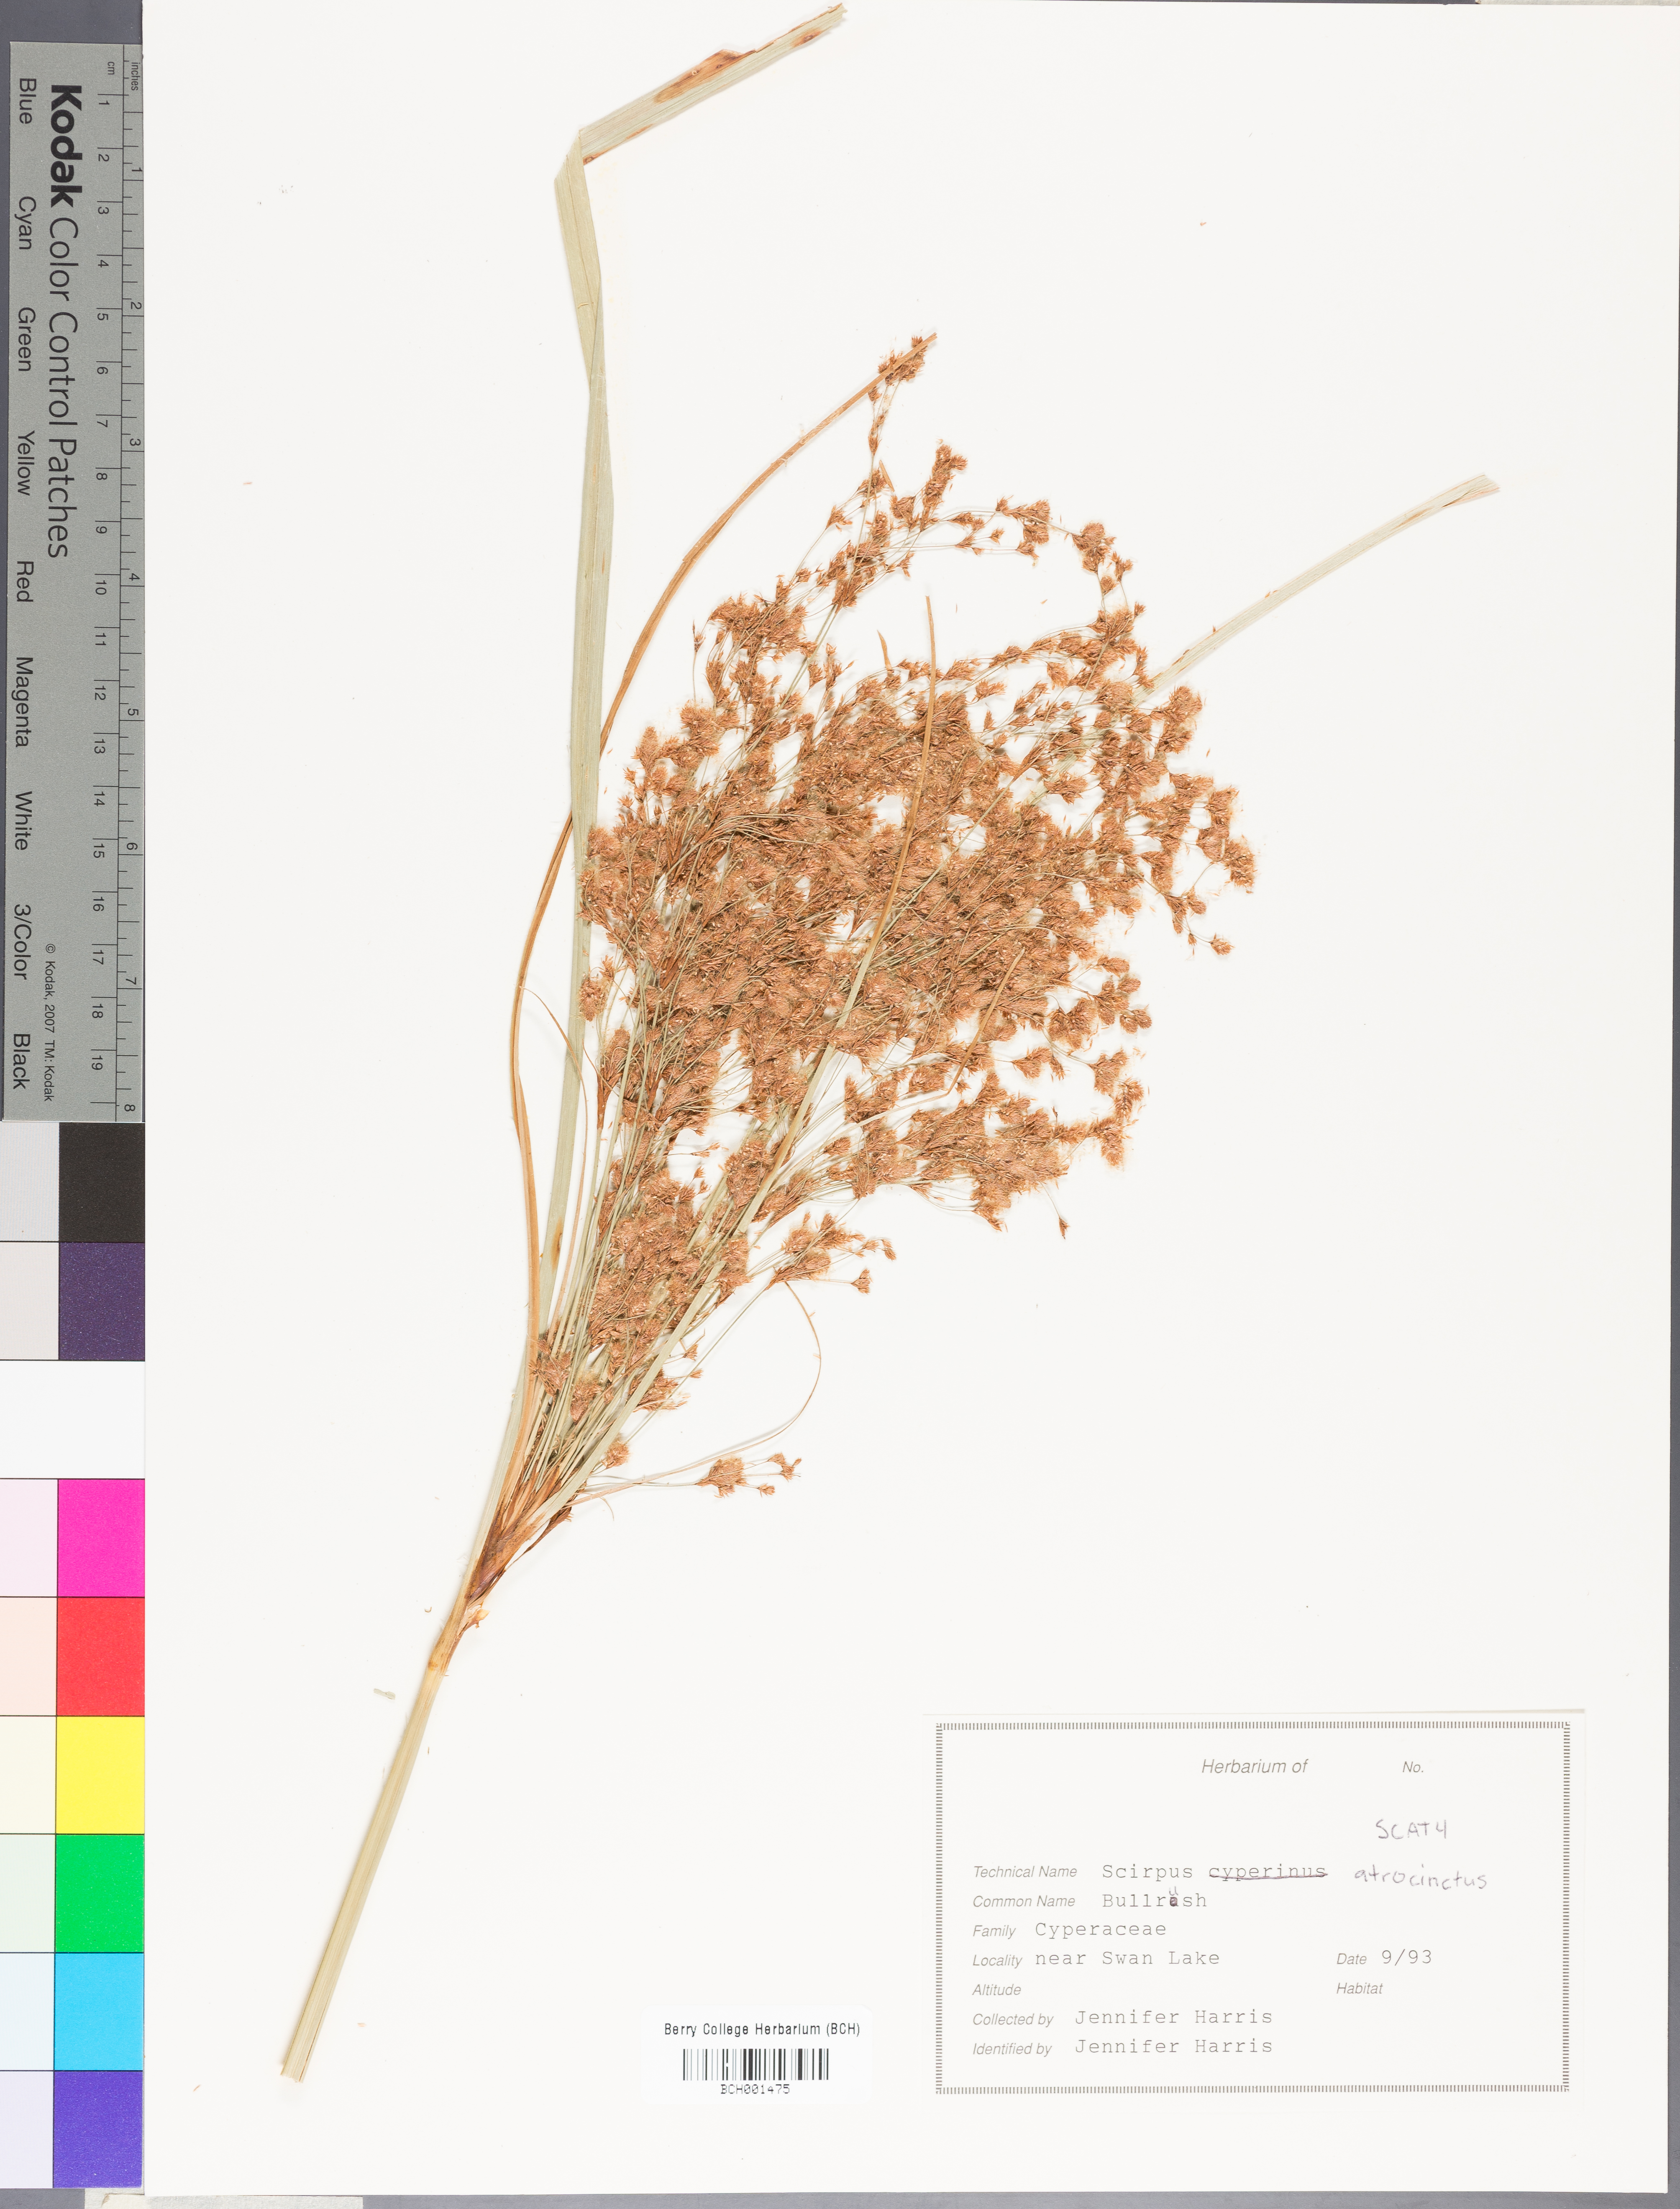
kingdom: Plantae
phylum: Tracheophyta
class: Liliopsida
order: Poales
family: Cyperaceae
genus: Scirpus
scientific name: Scirpus atrocinctus
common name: Black-girdled bulrush
